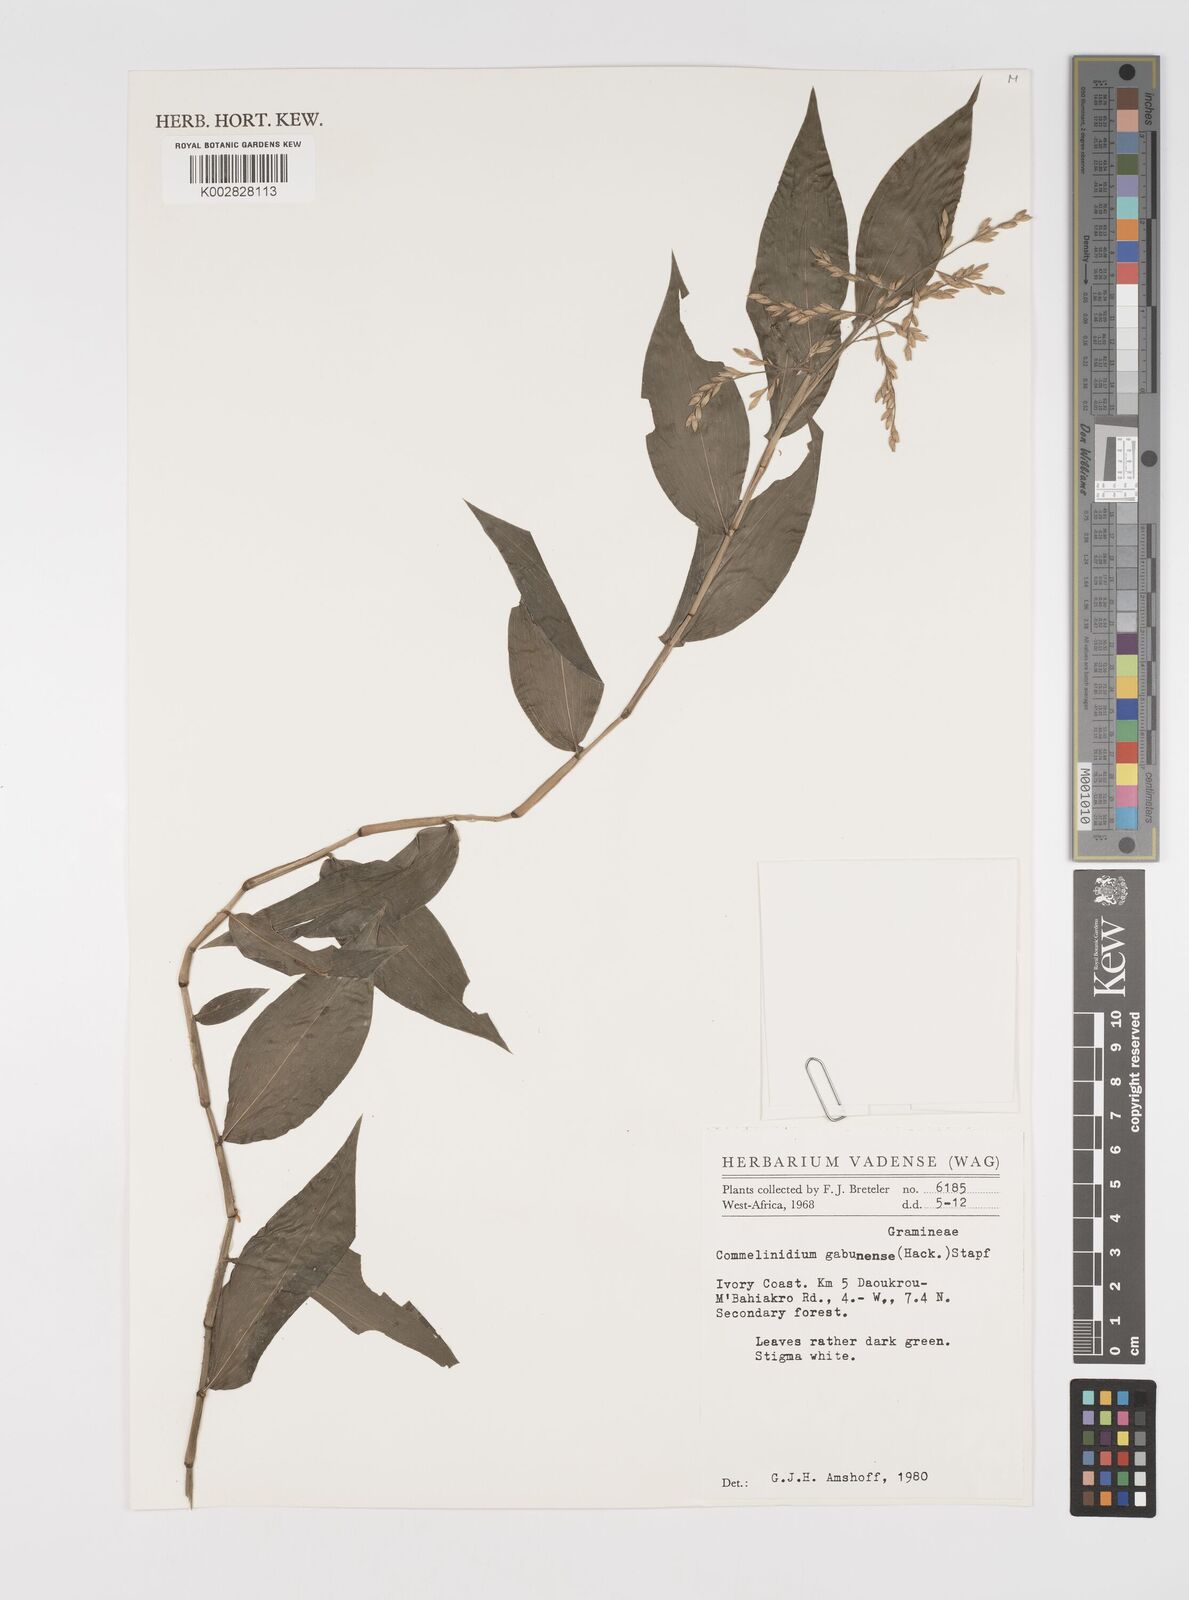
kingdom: Plantae
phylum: Tracheophyta
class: Liliopsida
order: Poales
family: Poaceae
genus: Acroceras
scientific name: Acroceras gabunense
